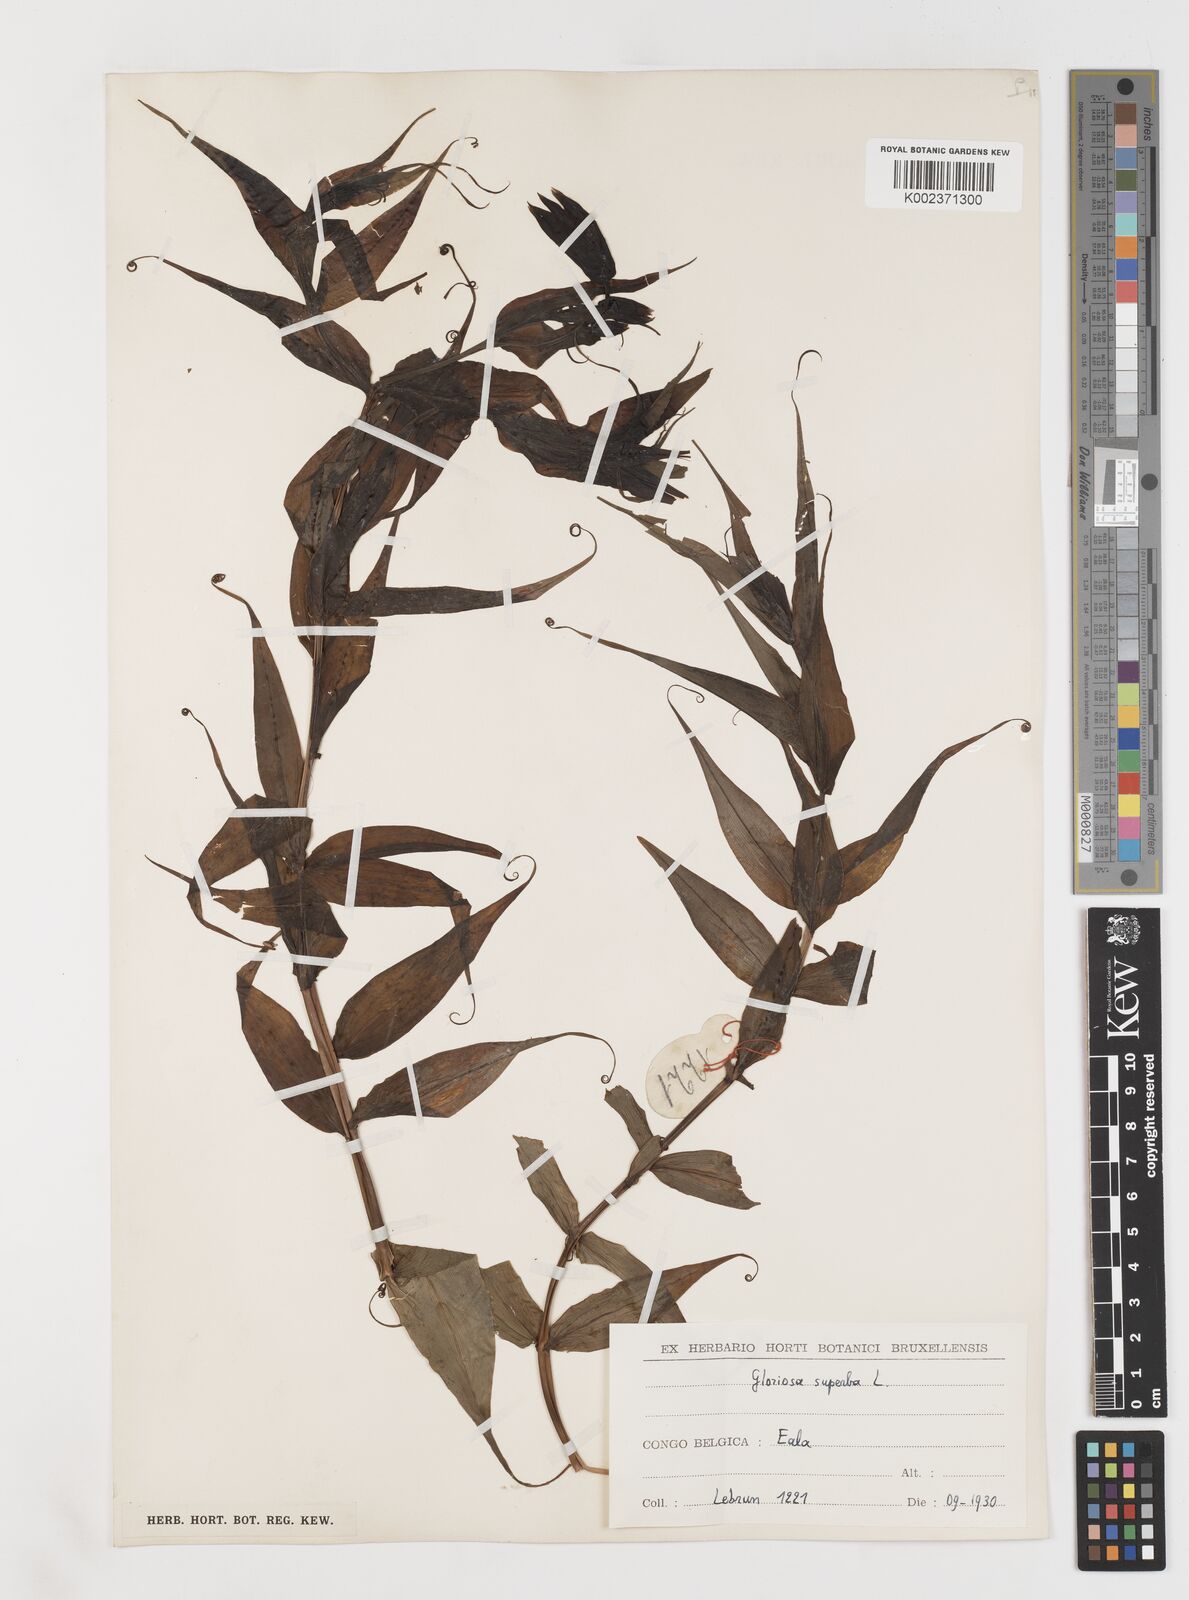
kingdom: Plantae
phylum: Tracheophyta
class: Liliopsida
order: Liliales
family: Colchicaceae
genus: Gloriosa
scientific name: Gloriosa simplex
